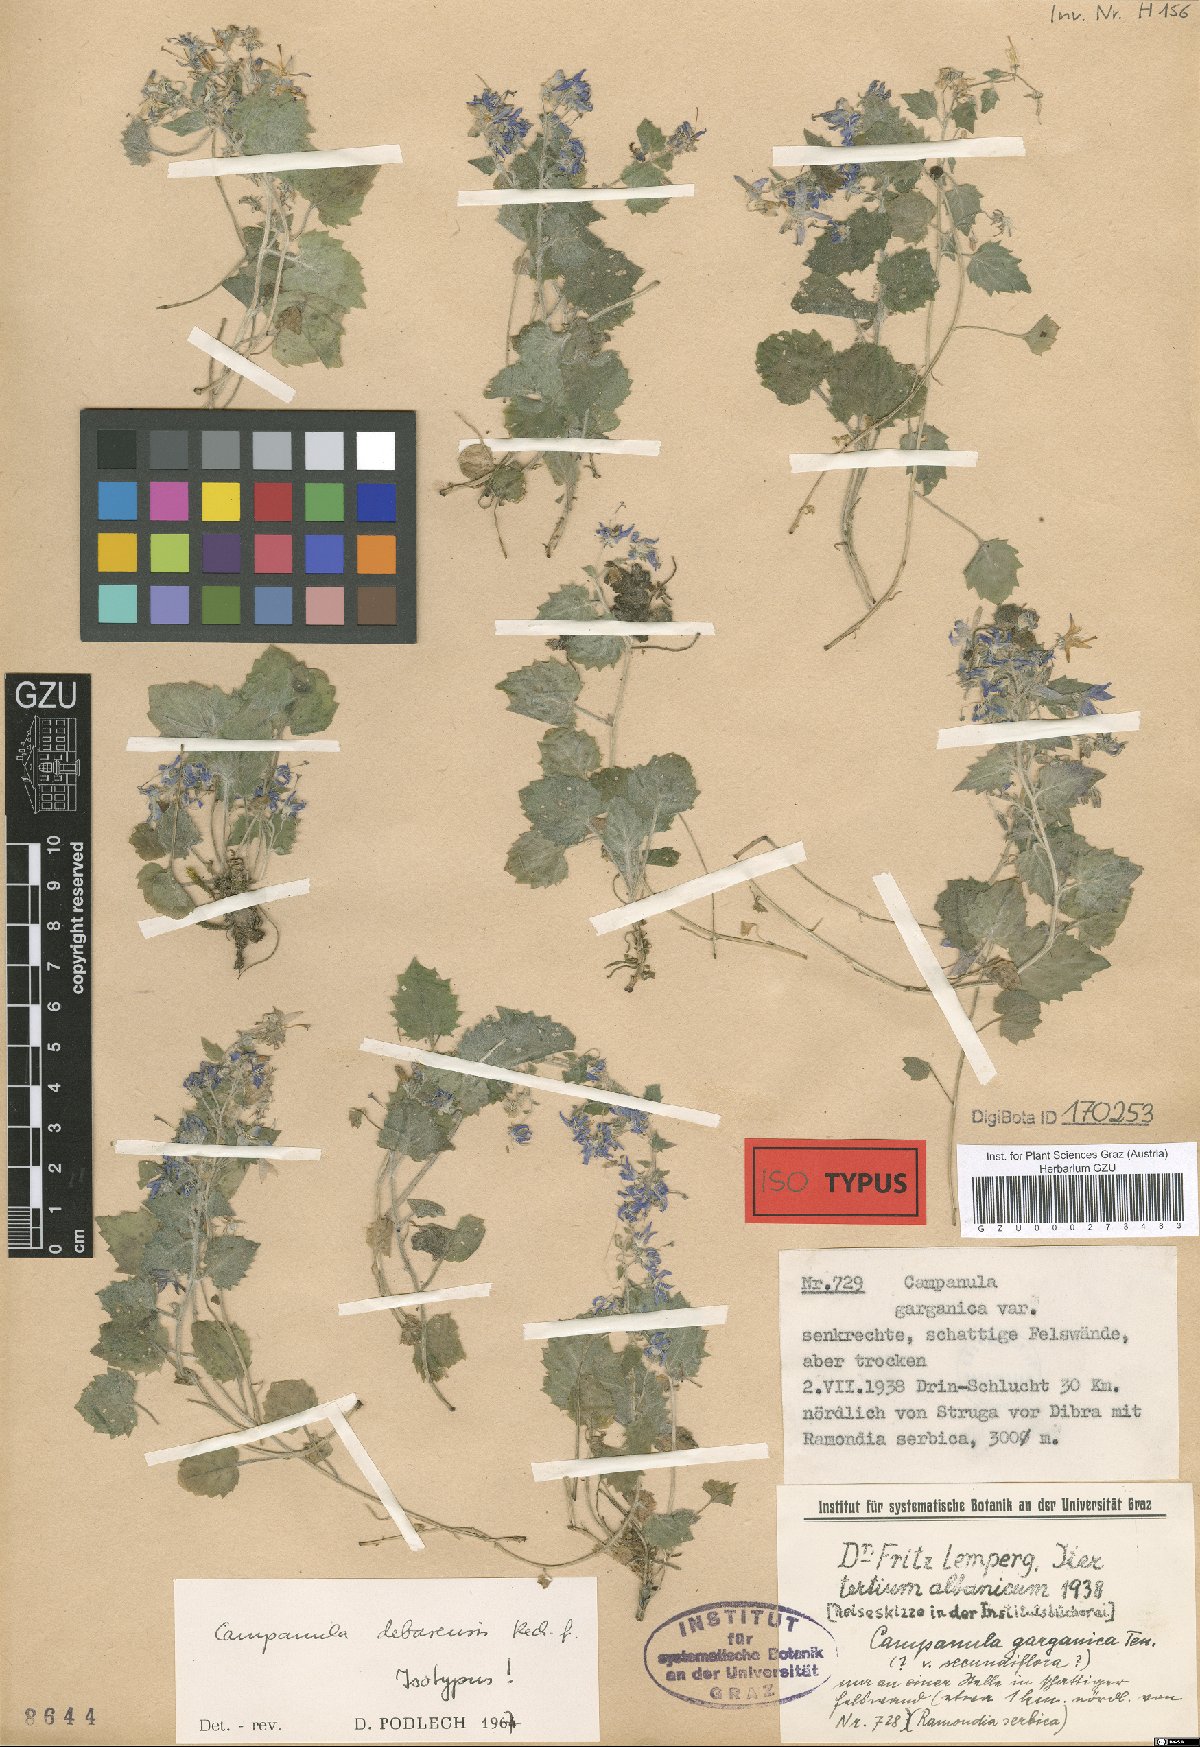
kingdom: Plantae
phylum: Tracheophyta
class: Magnoliopsida
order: Asterales
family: Campanulaceae
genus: Campanula
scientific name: Campanula fenestrellata
